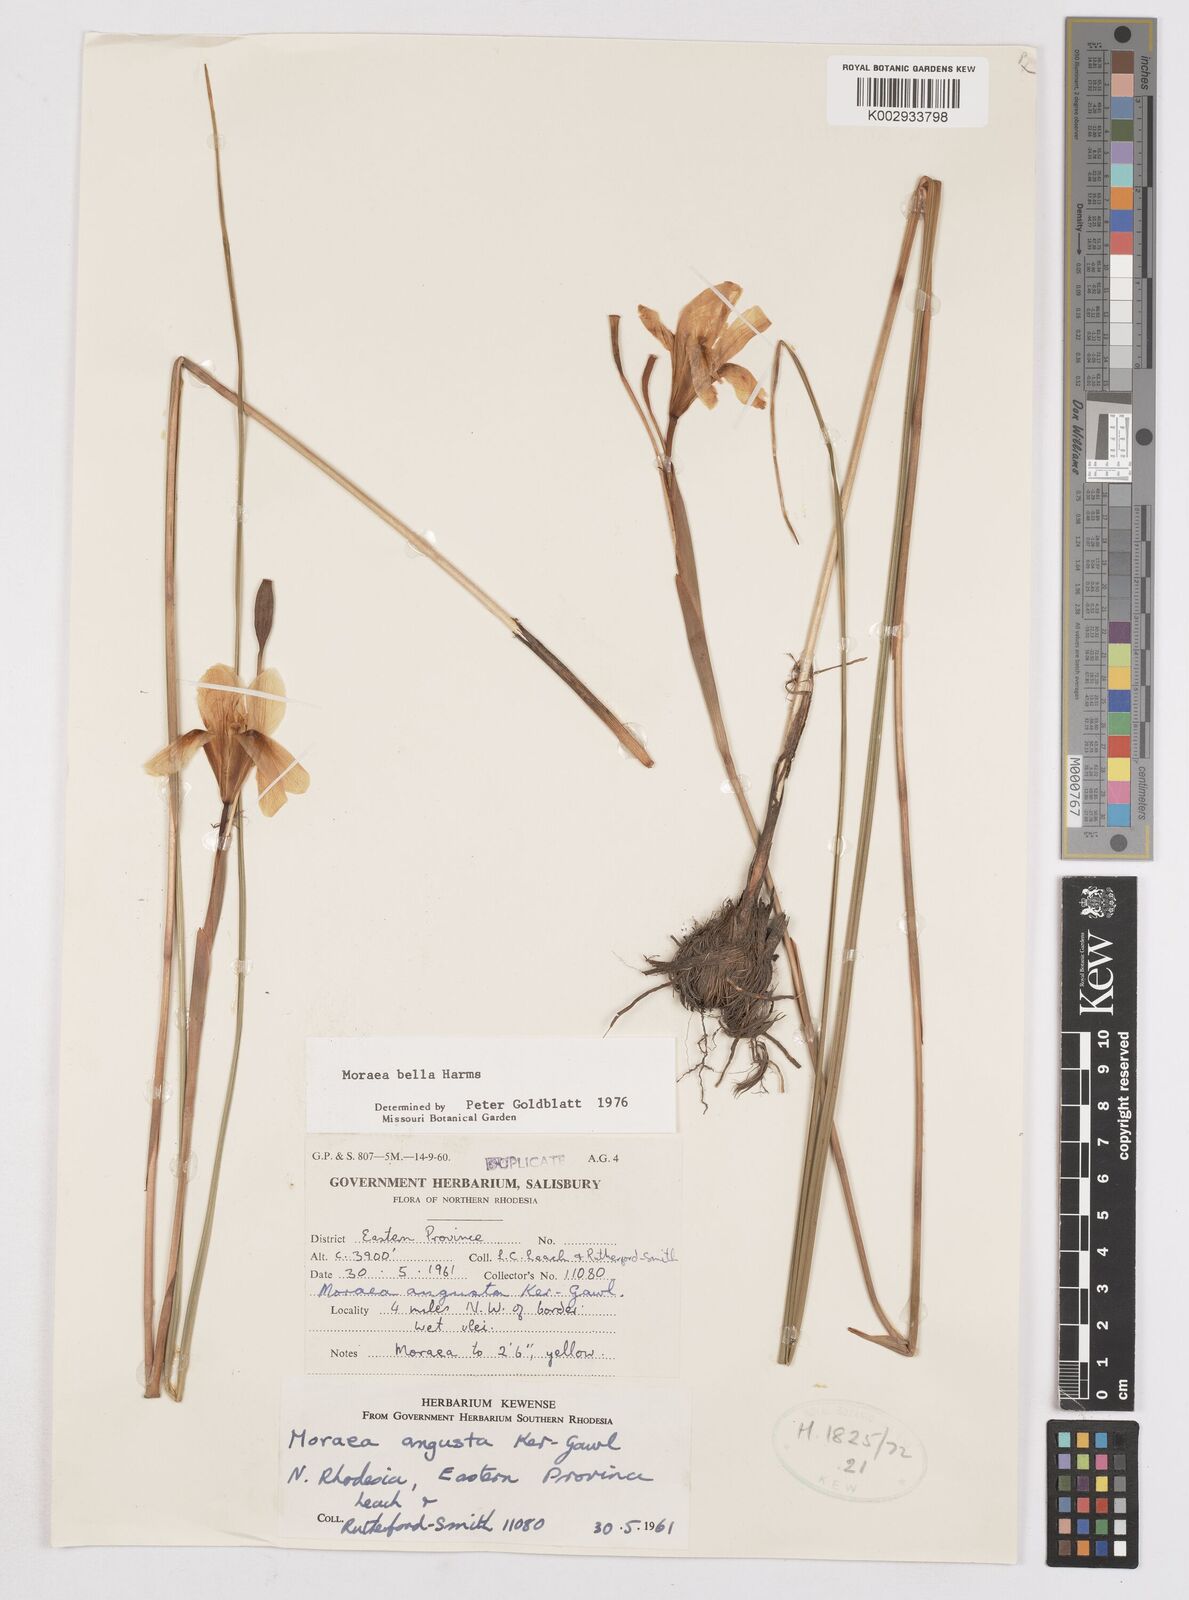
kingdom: Plantae
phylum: Tracheophyta
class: Liliopsida
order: Asparagales
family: Iridaceae
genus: Moraea
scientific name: Moraea bella
